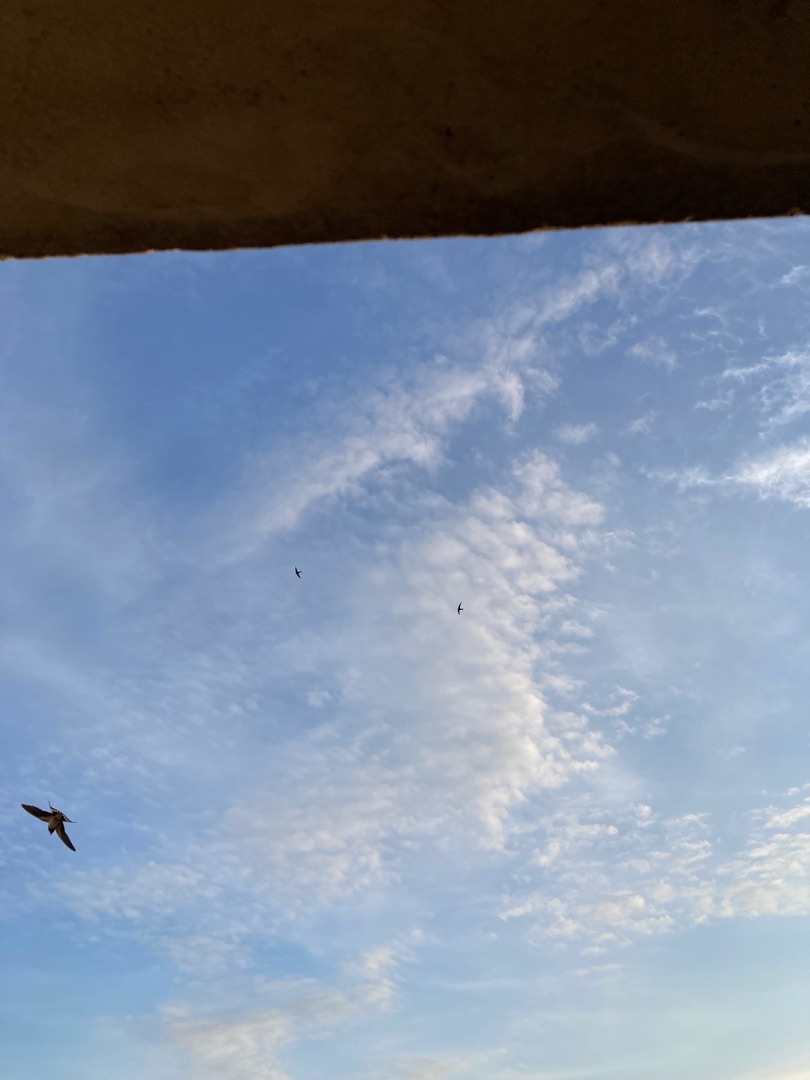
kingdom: Animalia
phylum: Chordata
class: Aves
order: Passeriformes
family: Hirundinidae
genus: Hirundo
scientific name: Hirundo rustica
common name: Landsvale
